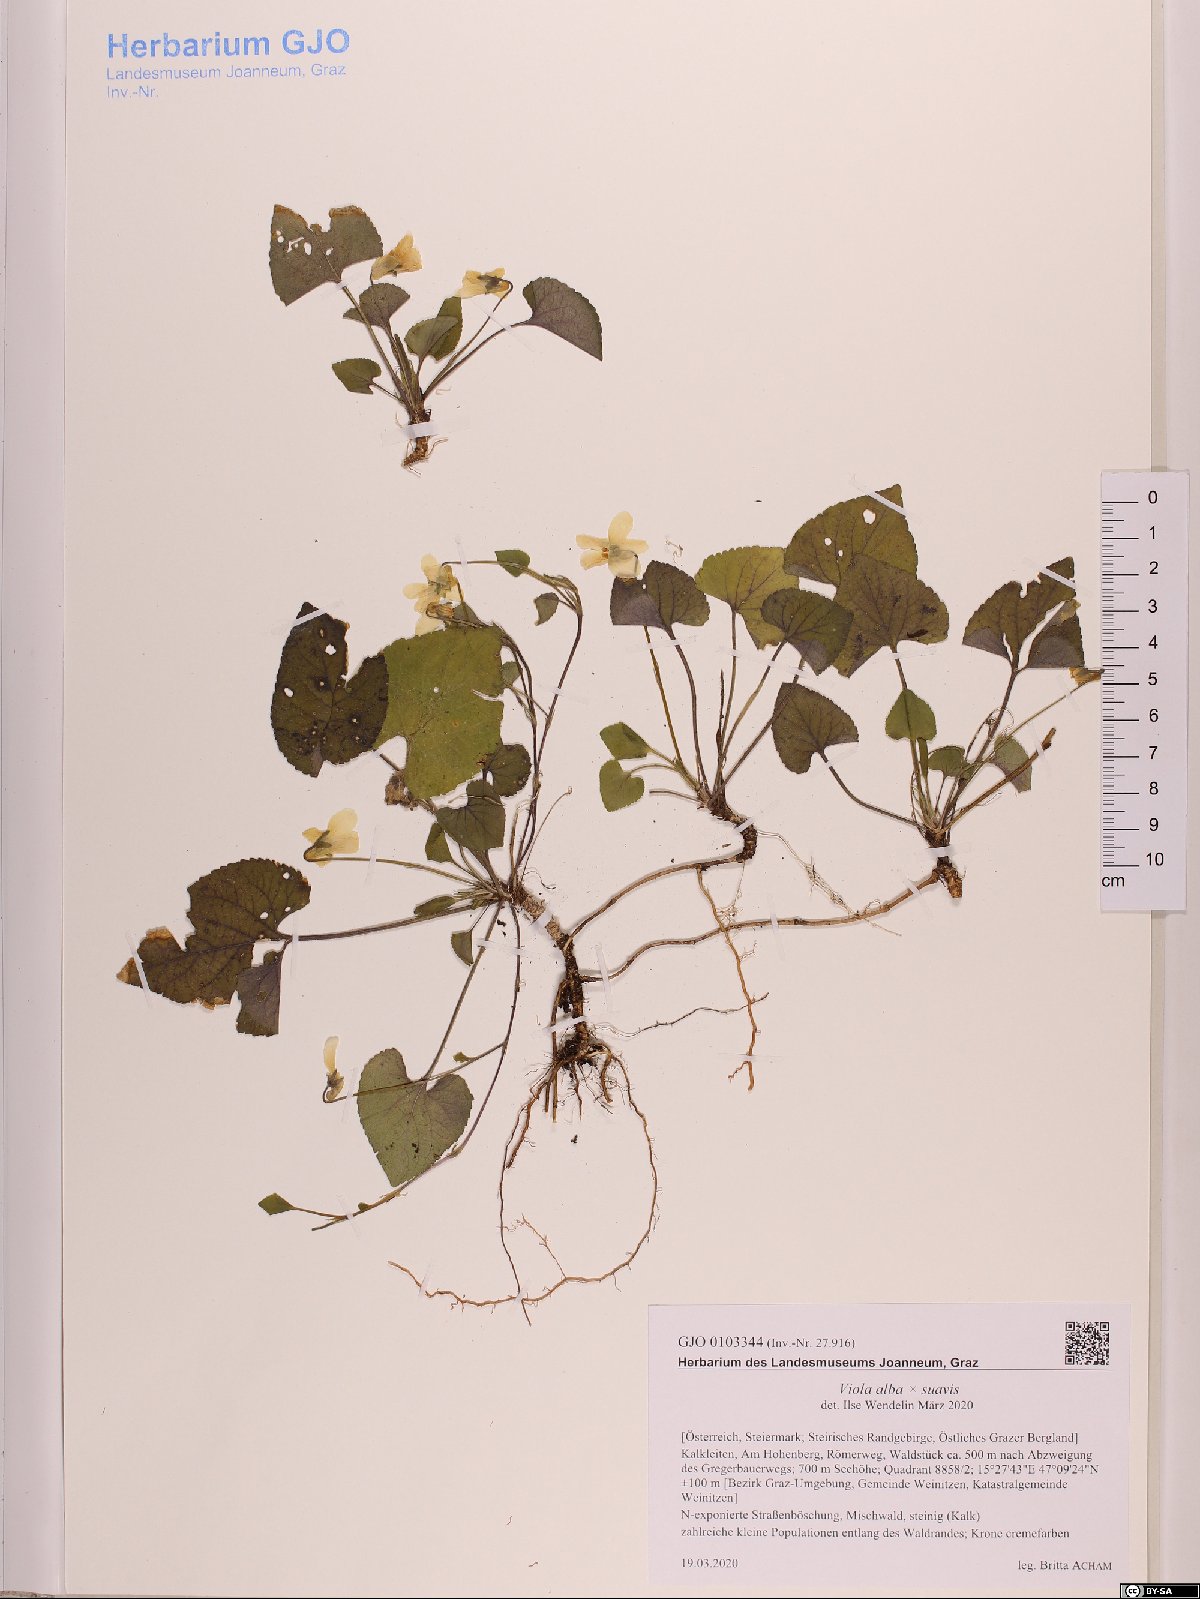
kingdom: Plantae
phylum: Tracheophyta
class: Magnoliopsida
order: Malpighiales
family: Violaceae
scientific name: Violaceae
